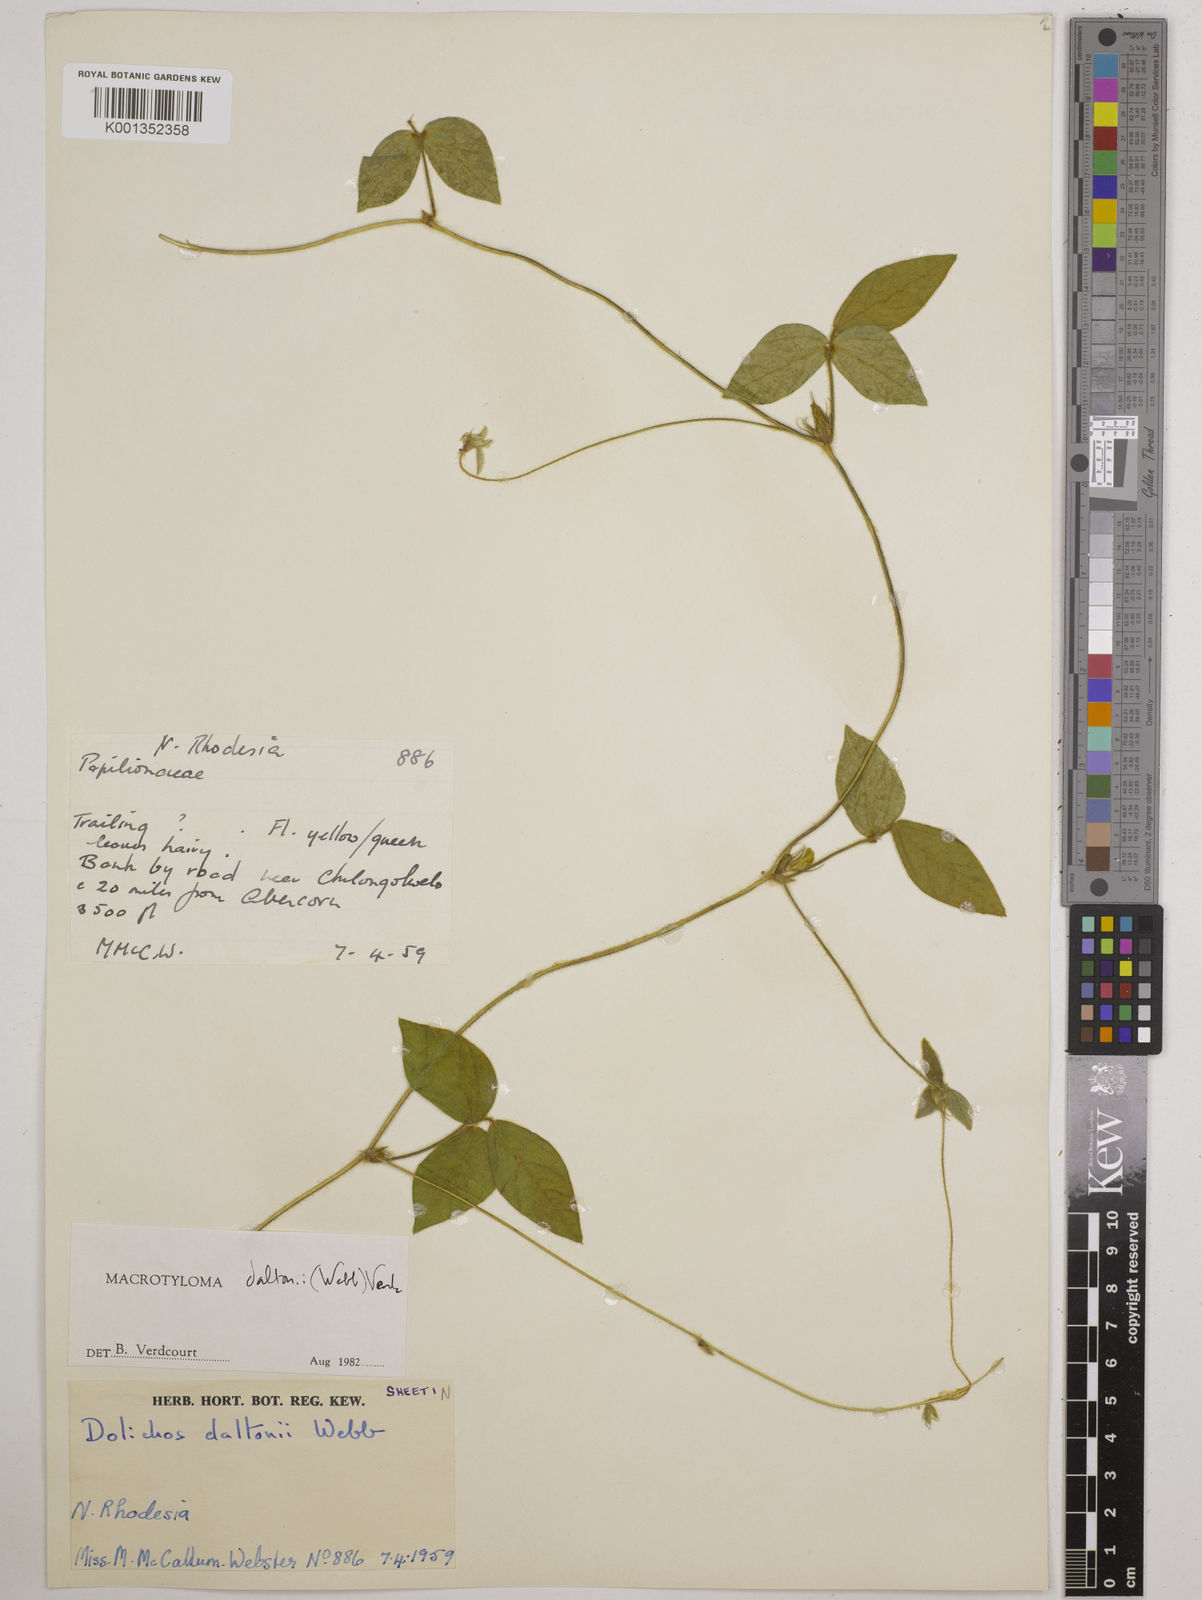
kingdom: Plantae
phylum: Tracheophyta
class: Magnoliopsida
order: Fabales
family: Fabaceae
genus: Macrotyloma
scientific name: Macrotyloma daltonii
